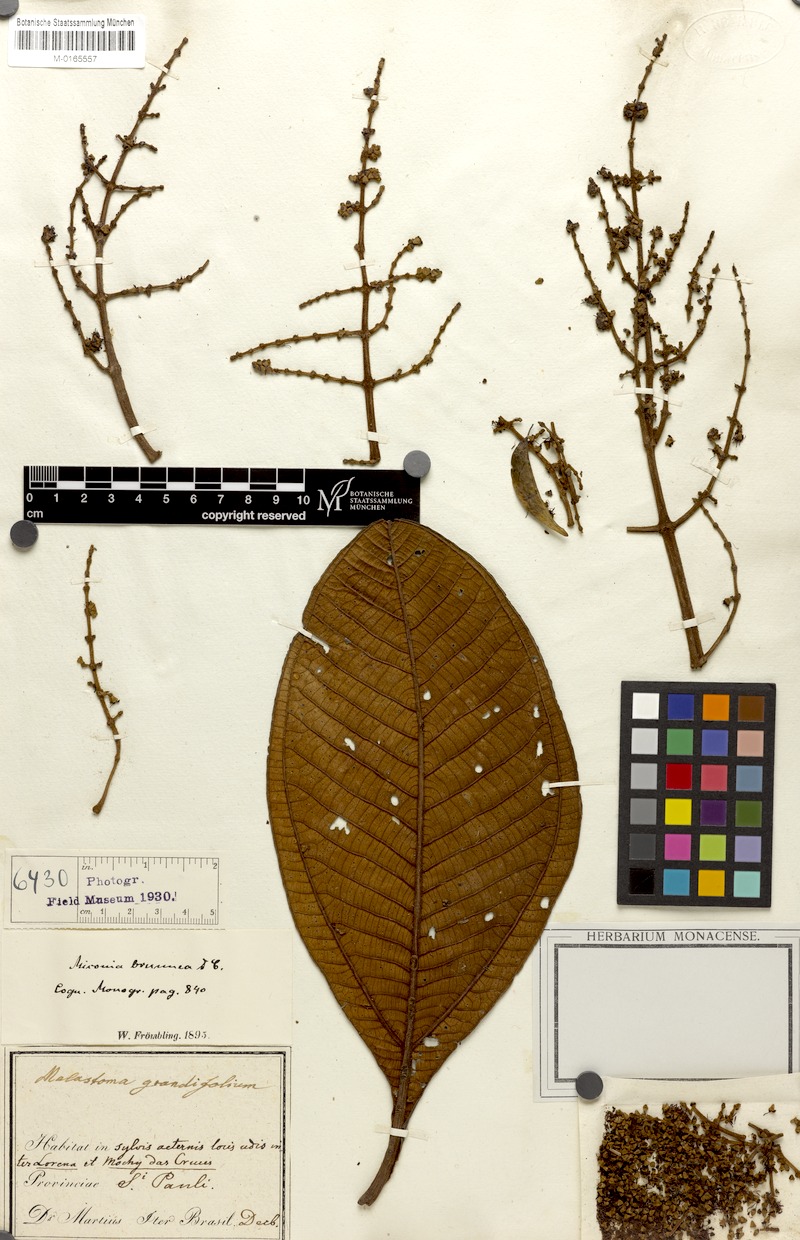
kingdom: Plantae
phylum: Tracheophyta
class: Magnoliopsida
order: Myrtales
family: Melastomataceae
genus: Miconia
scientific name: Miconia brunnea
